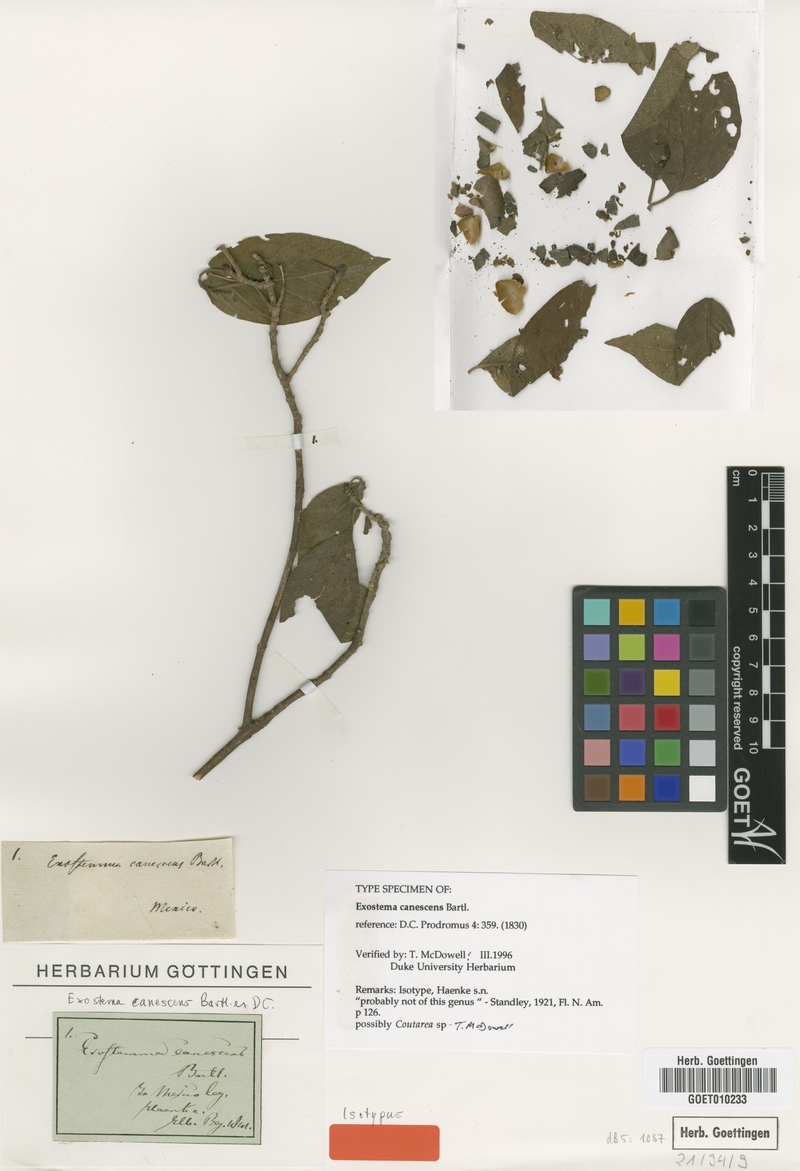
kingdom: Plantae
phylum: Tracheophyta
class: Magnoliopsida
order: Gentianales
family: Rubiaceae
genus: Exostema
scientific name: Exostema canescens
